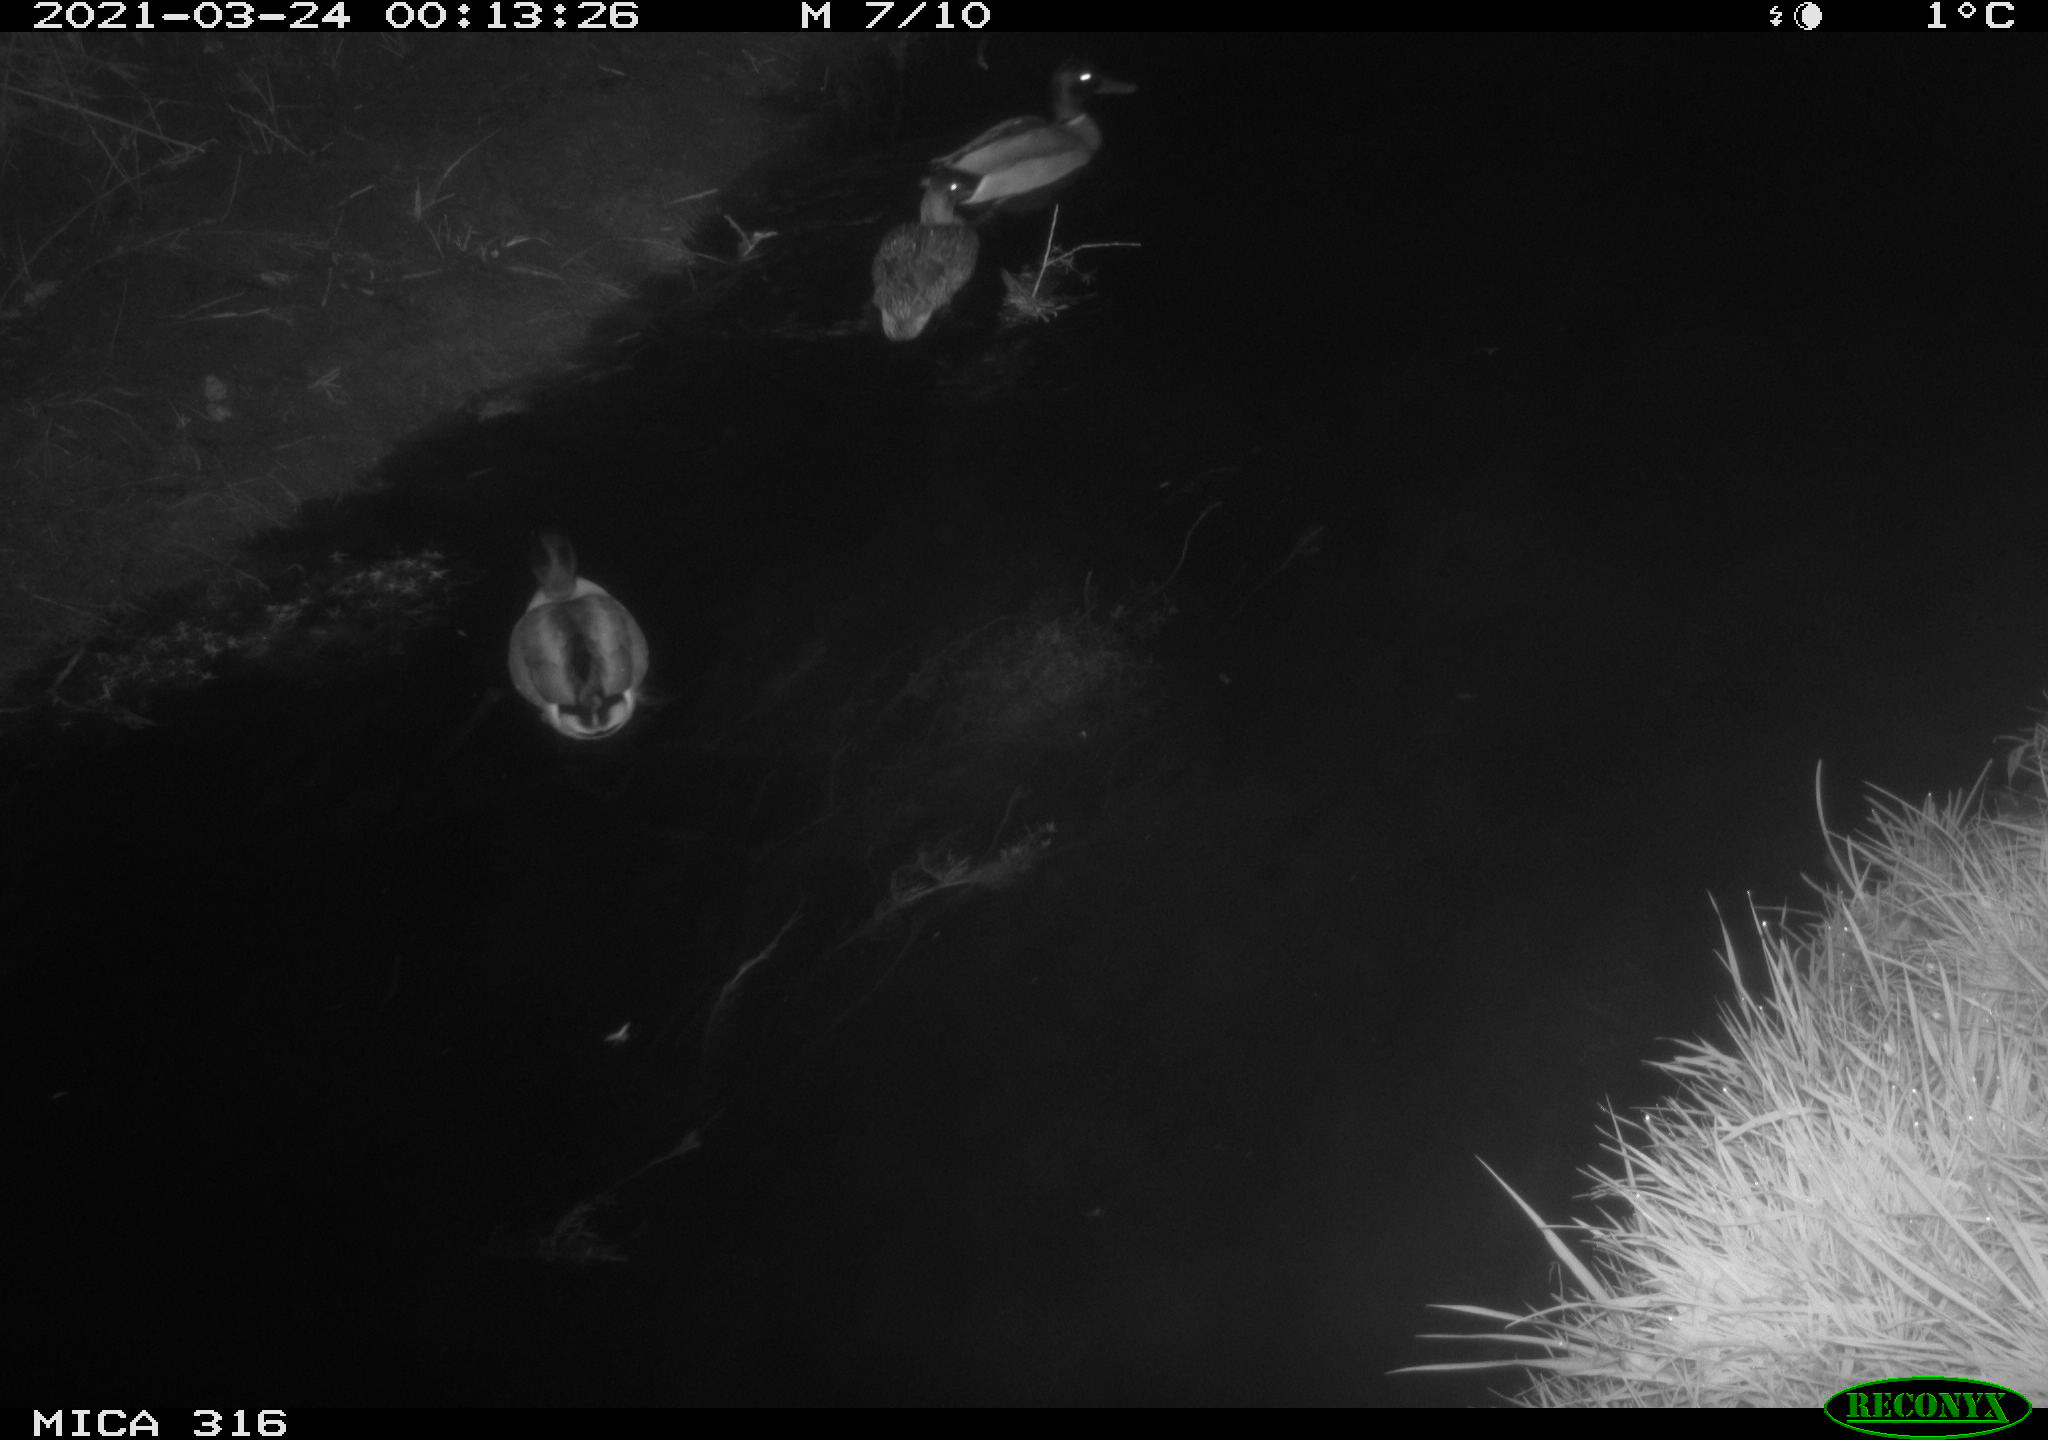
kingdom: Animalia
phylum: Chordata
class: Aves
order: Anseriformes
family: Anatidae
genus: Anas
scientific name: Anas platyrhynchos
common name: Mallard
